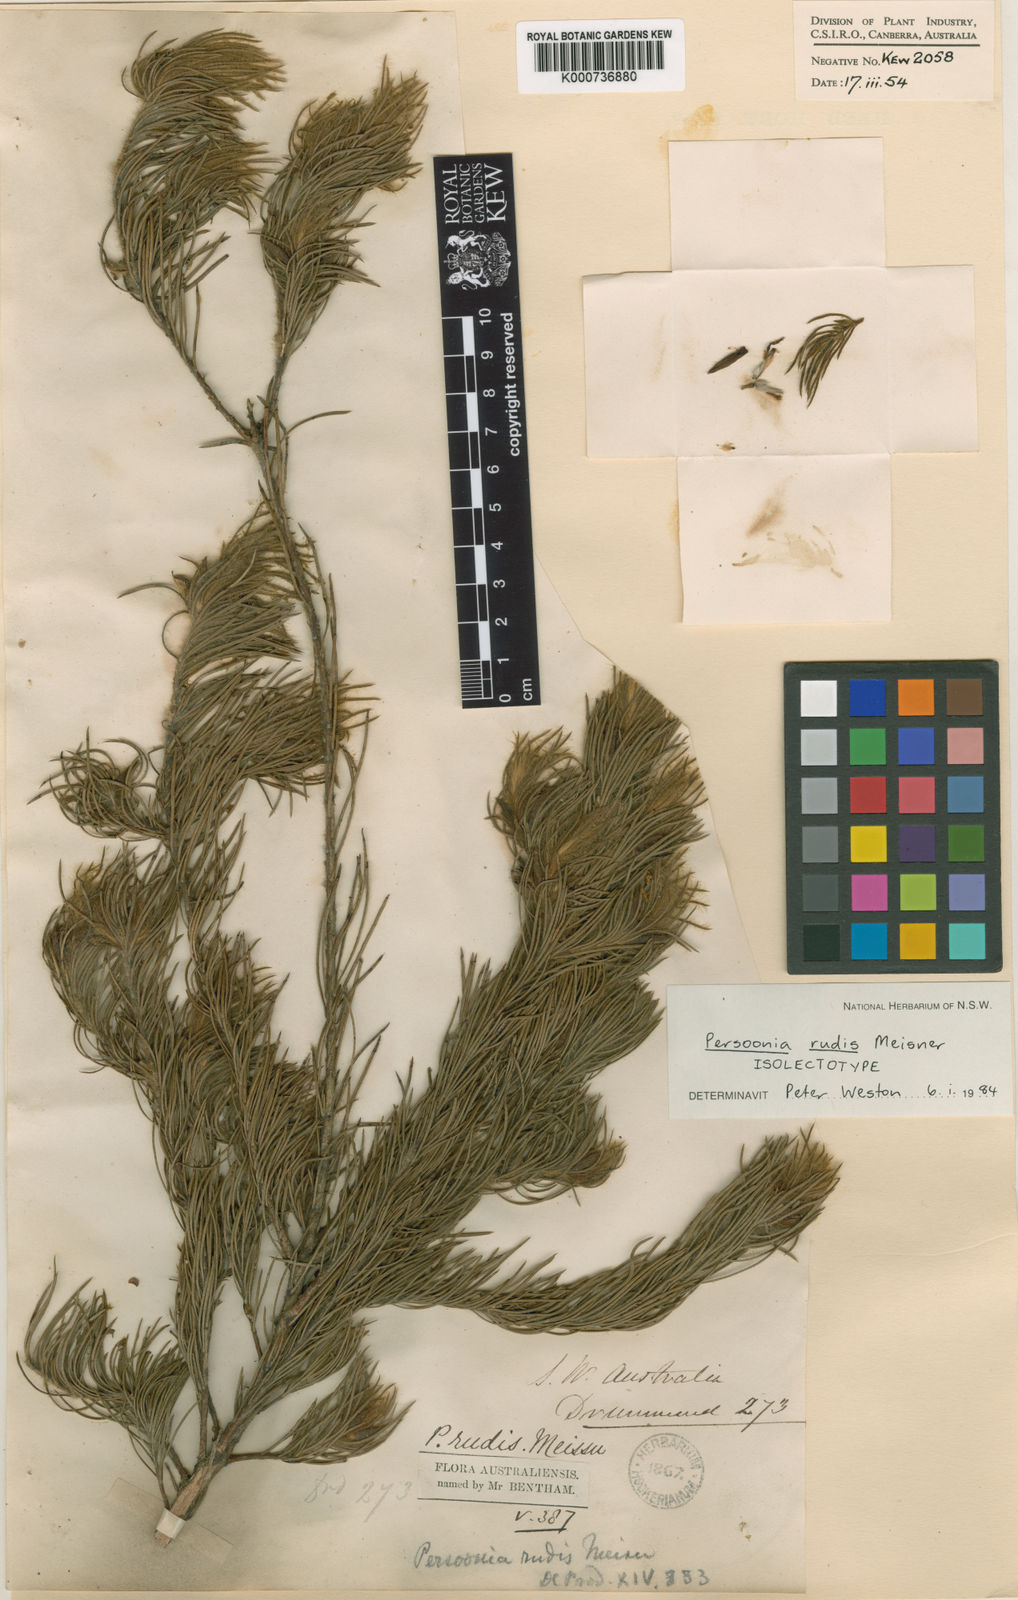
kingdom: Plantae
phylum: Tracheophyta
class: Magnoliopsida
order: Proteales
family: Proteaceae
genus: Persoonia
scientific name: Persoonia rudis
